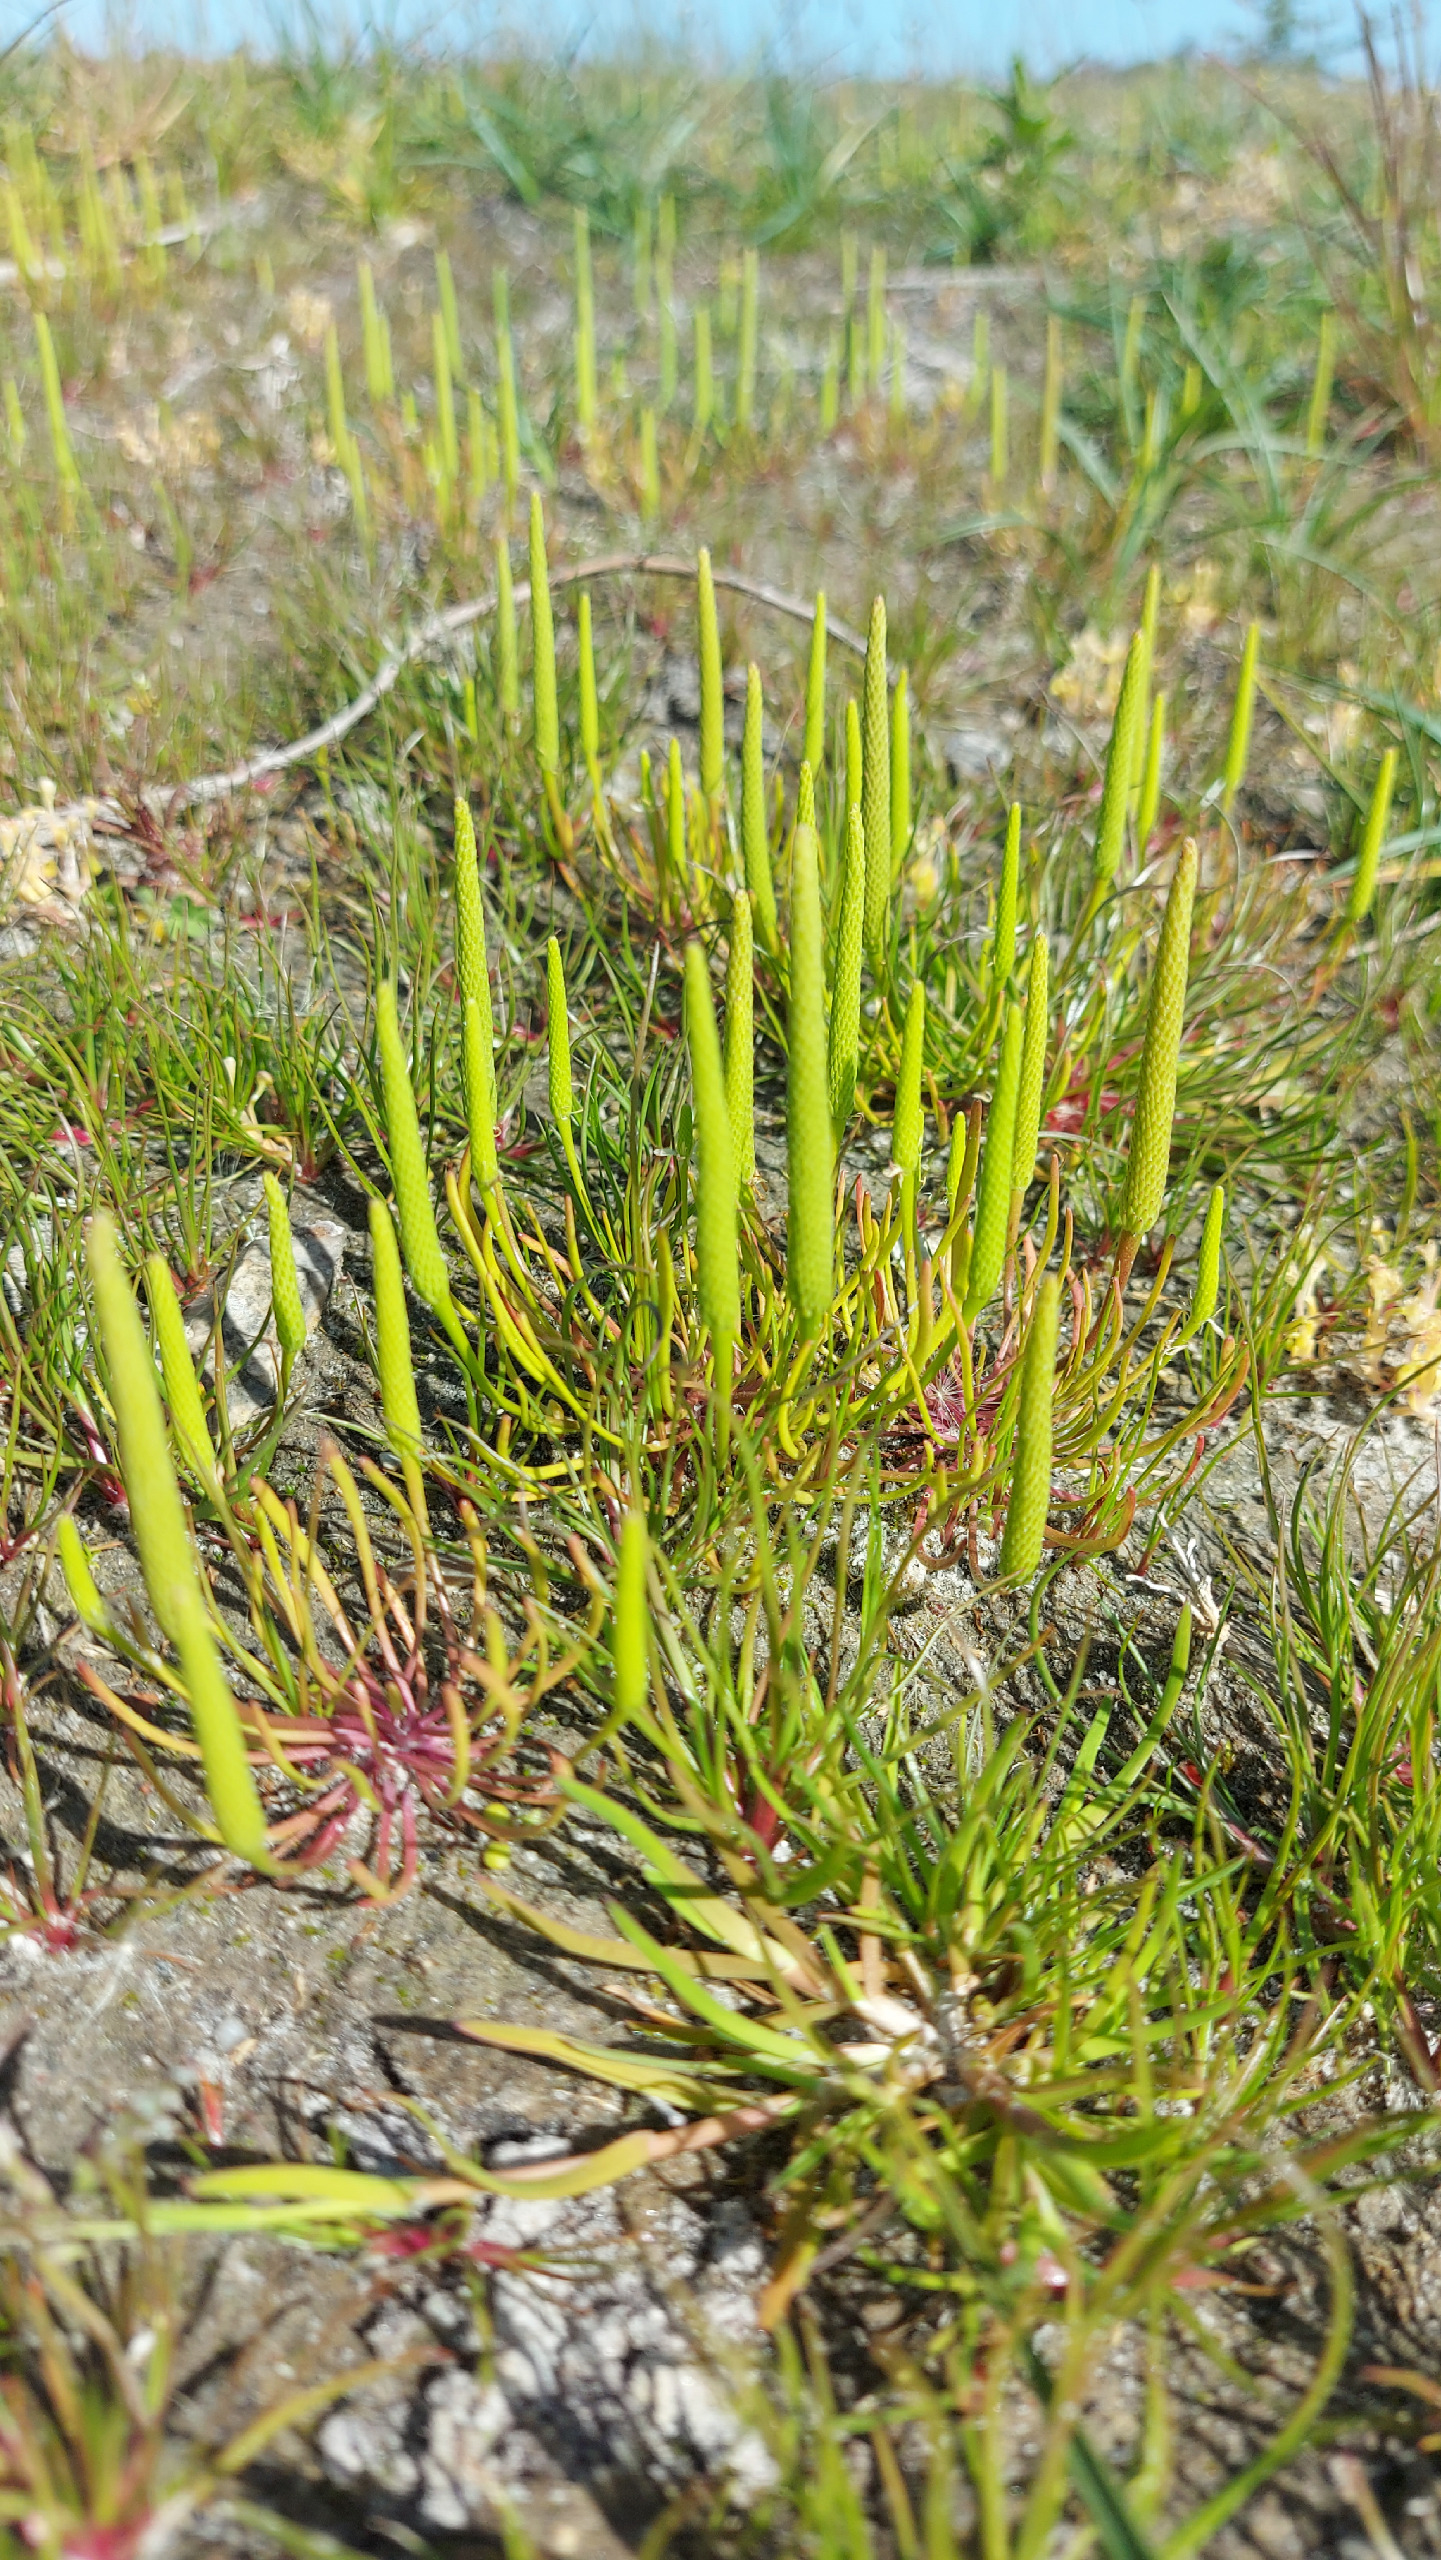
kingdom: Plantae
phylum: Tracheophyta
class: Magnoliopsida
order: Ranunculales
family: Ranunculaceae
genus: Myosurus
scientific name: Myosurus minimus
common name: Musehale
